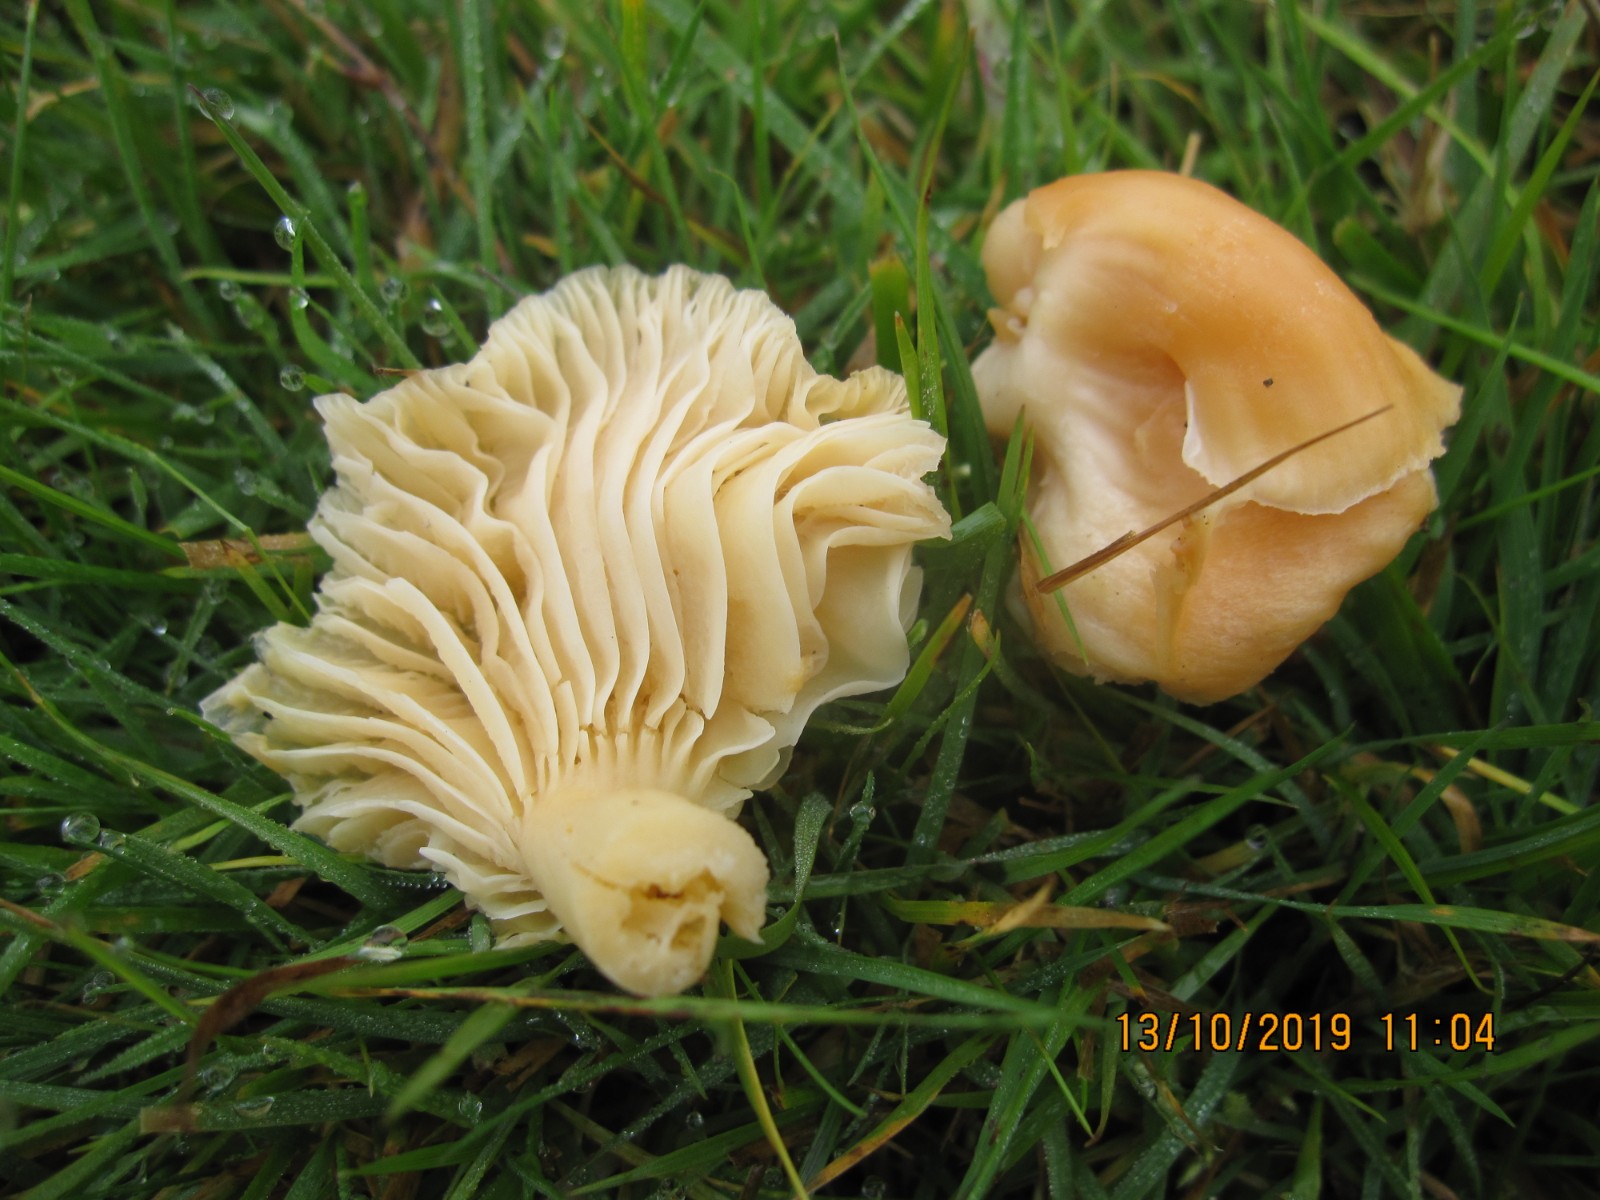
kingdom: Fungi
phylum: Basidiomycota
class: Agaricomycetes
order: Agaricales
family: Hygrophoraceae
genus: Cuphophyllus
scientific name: Cuphophyllus pratensis
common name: eng-vokshat
